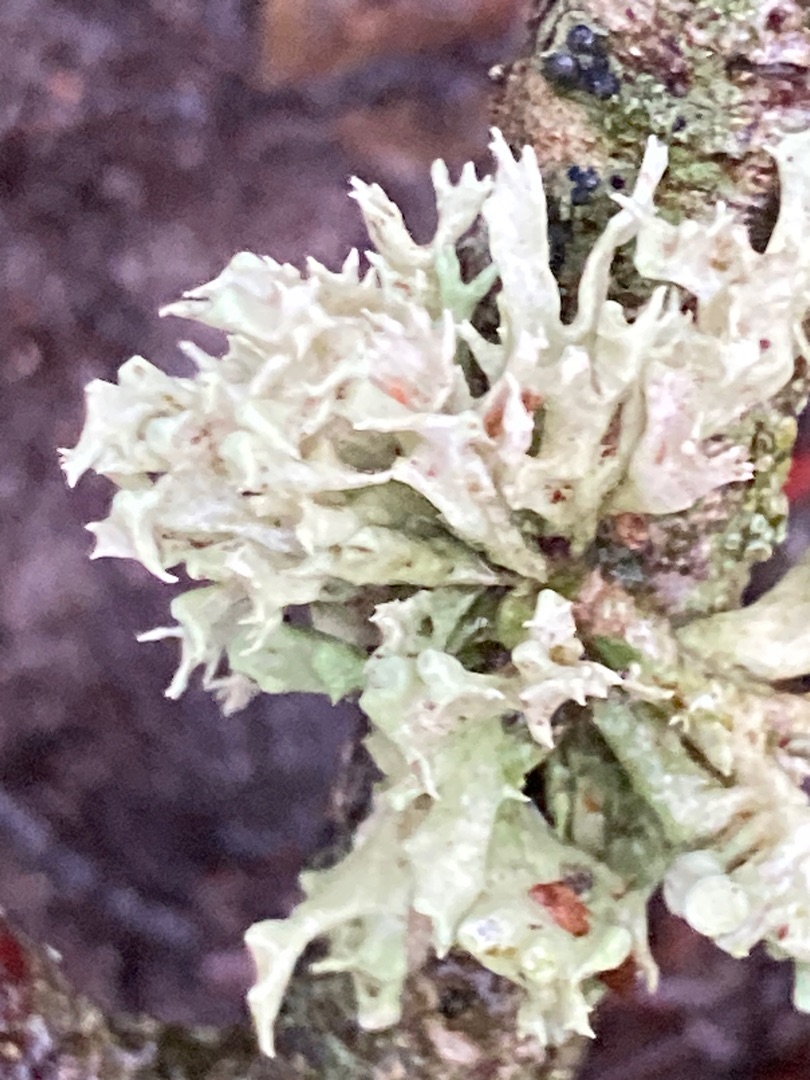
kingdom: Fungi
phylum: Ascomycota
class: Lecanoromycetes
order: Lecanorales
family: Ramalinaceae
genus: Ramalina
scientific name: Ramalina fastigiata
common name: Tue-grenlav
